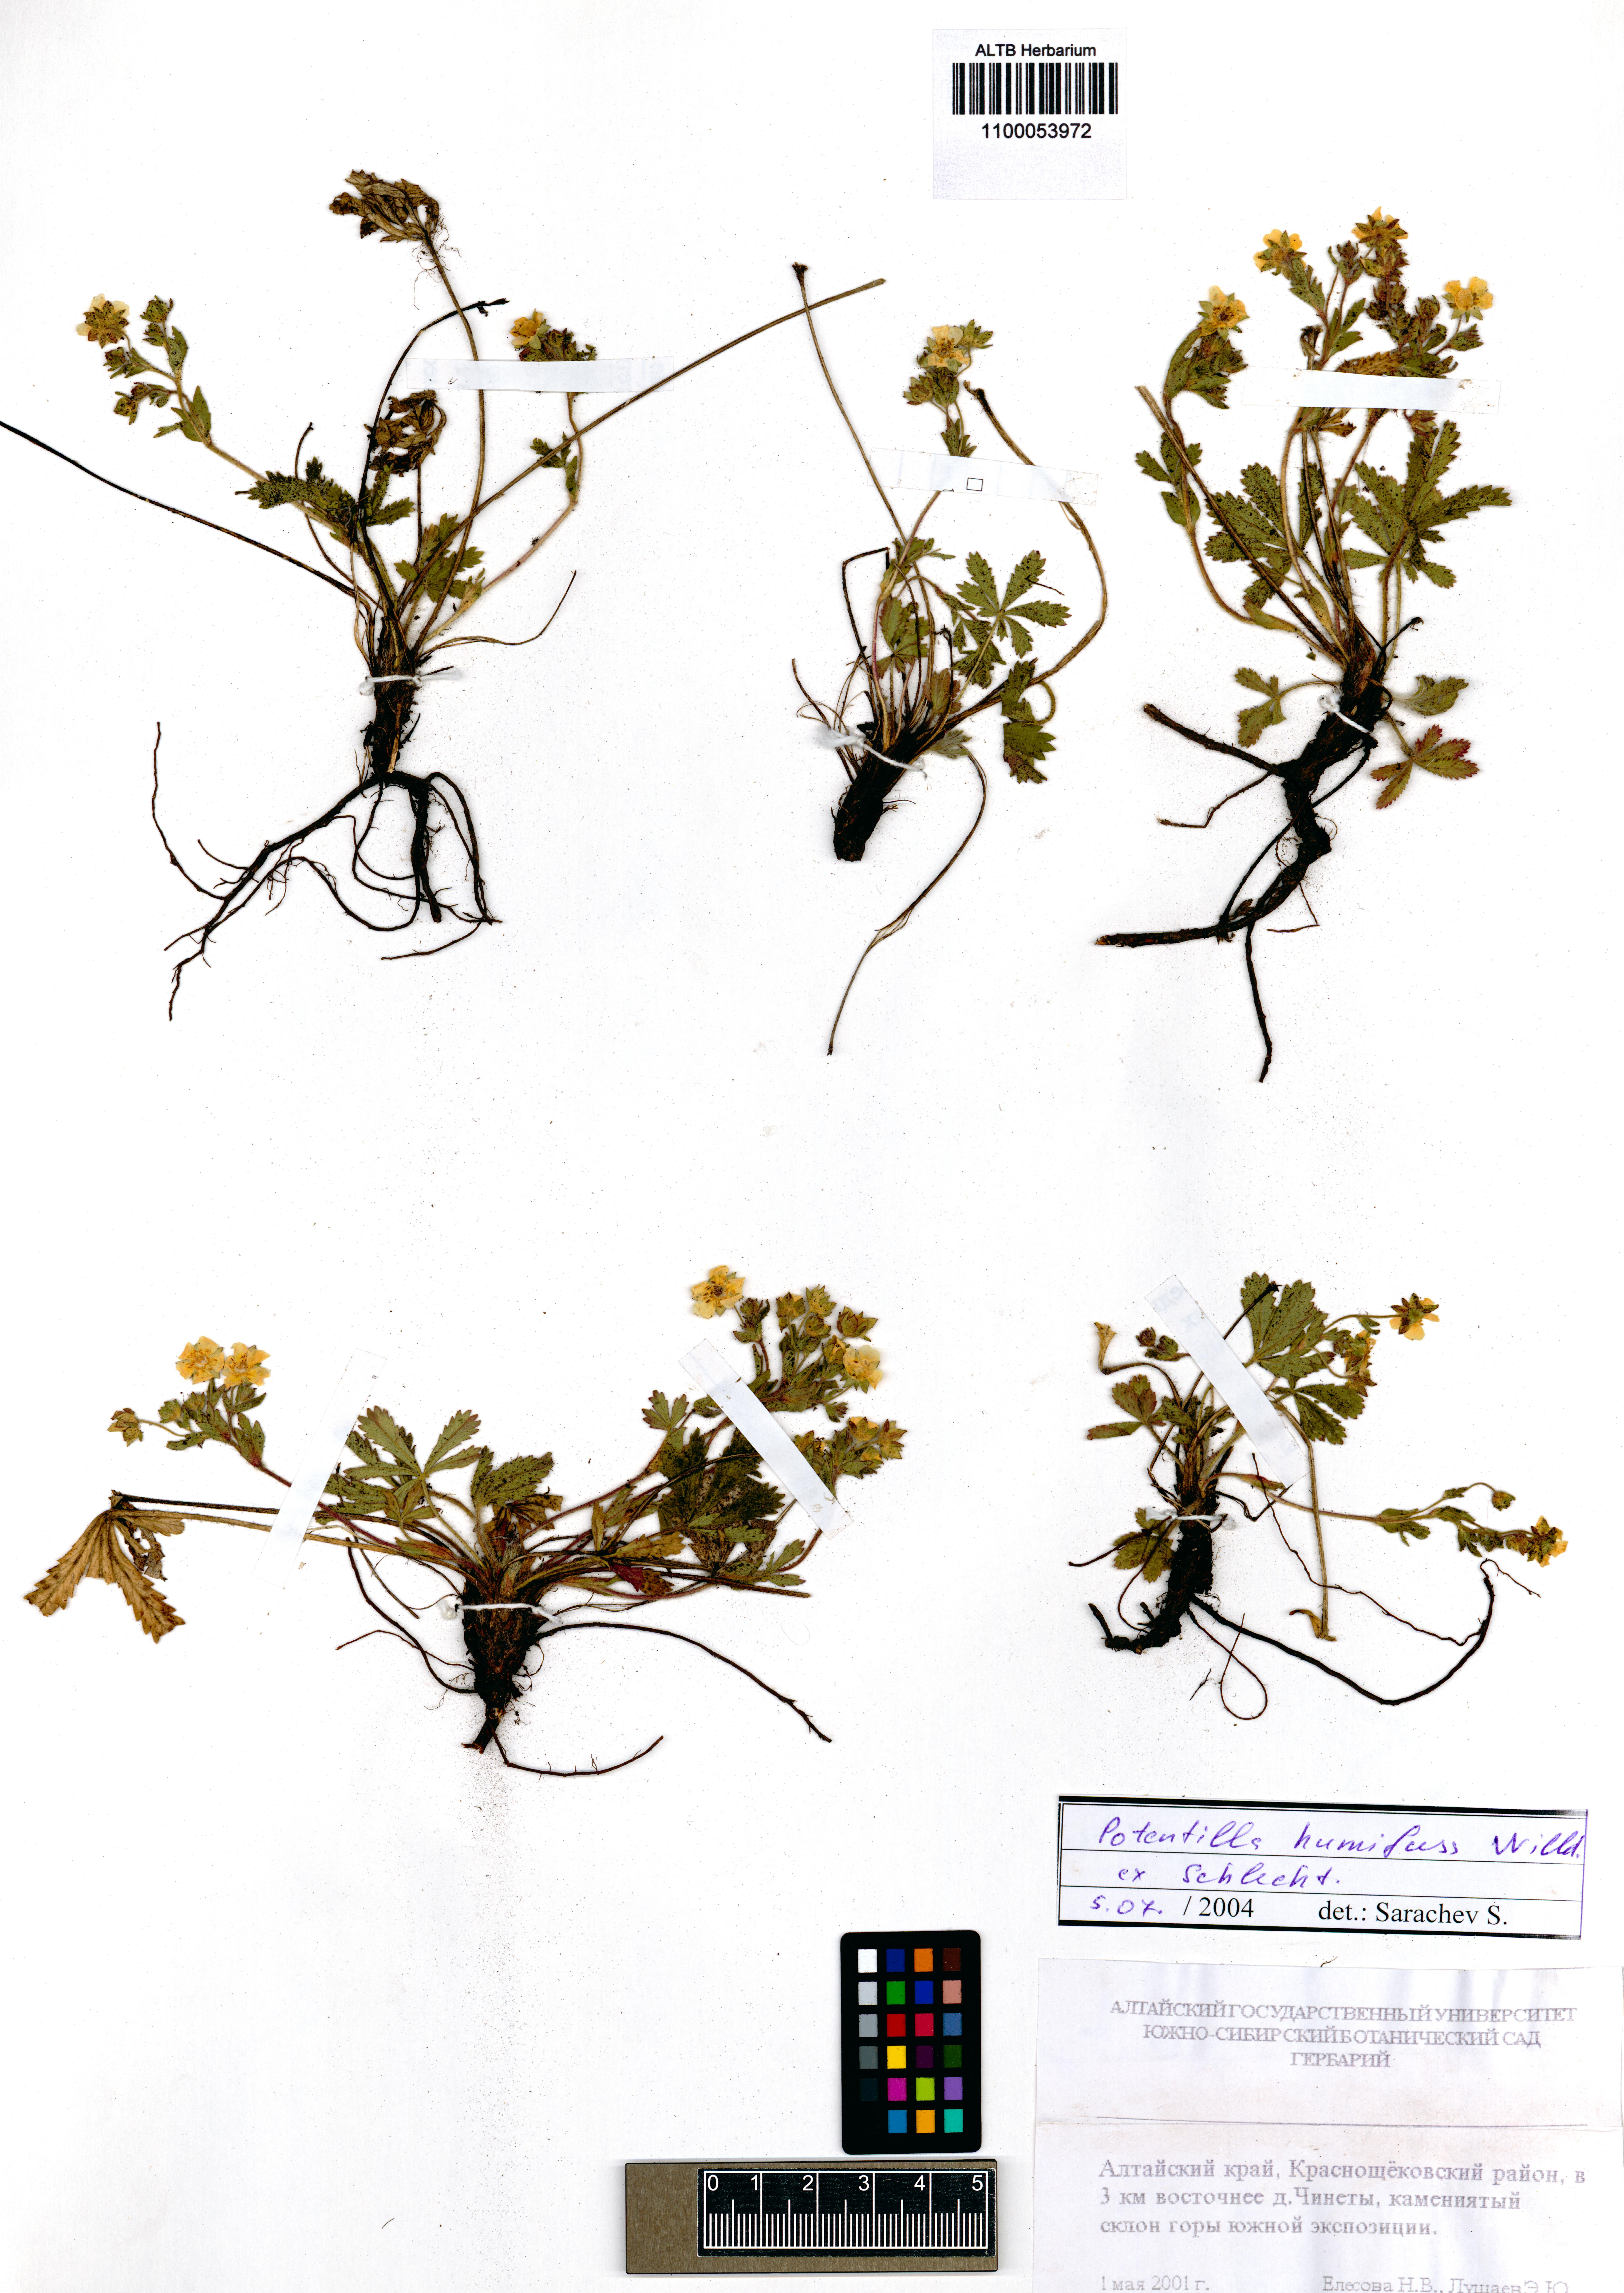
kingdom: Plantae
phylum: Tracheophyta
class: Magnoliopsida
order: Rosales
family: Rosaceae
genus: Potentilla
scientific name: Potentilla humifusa
